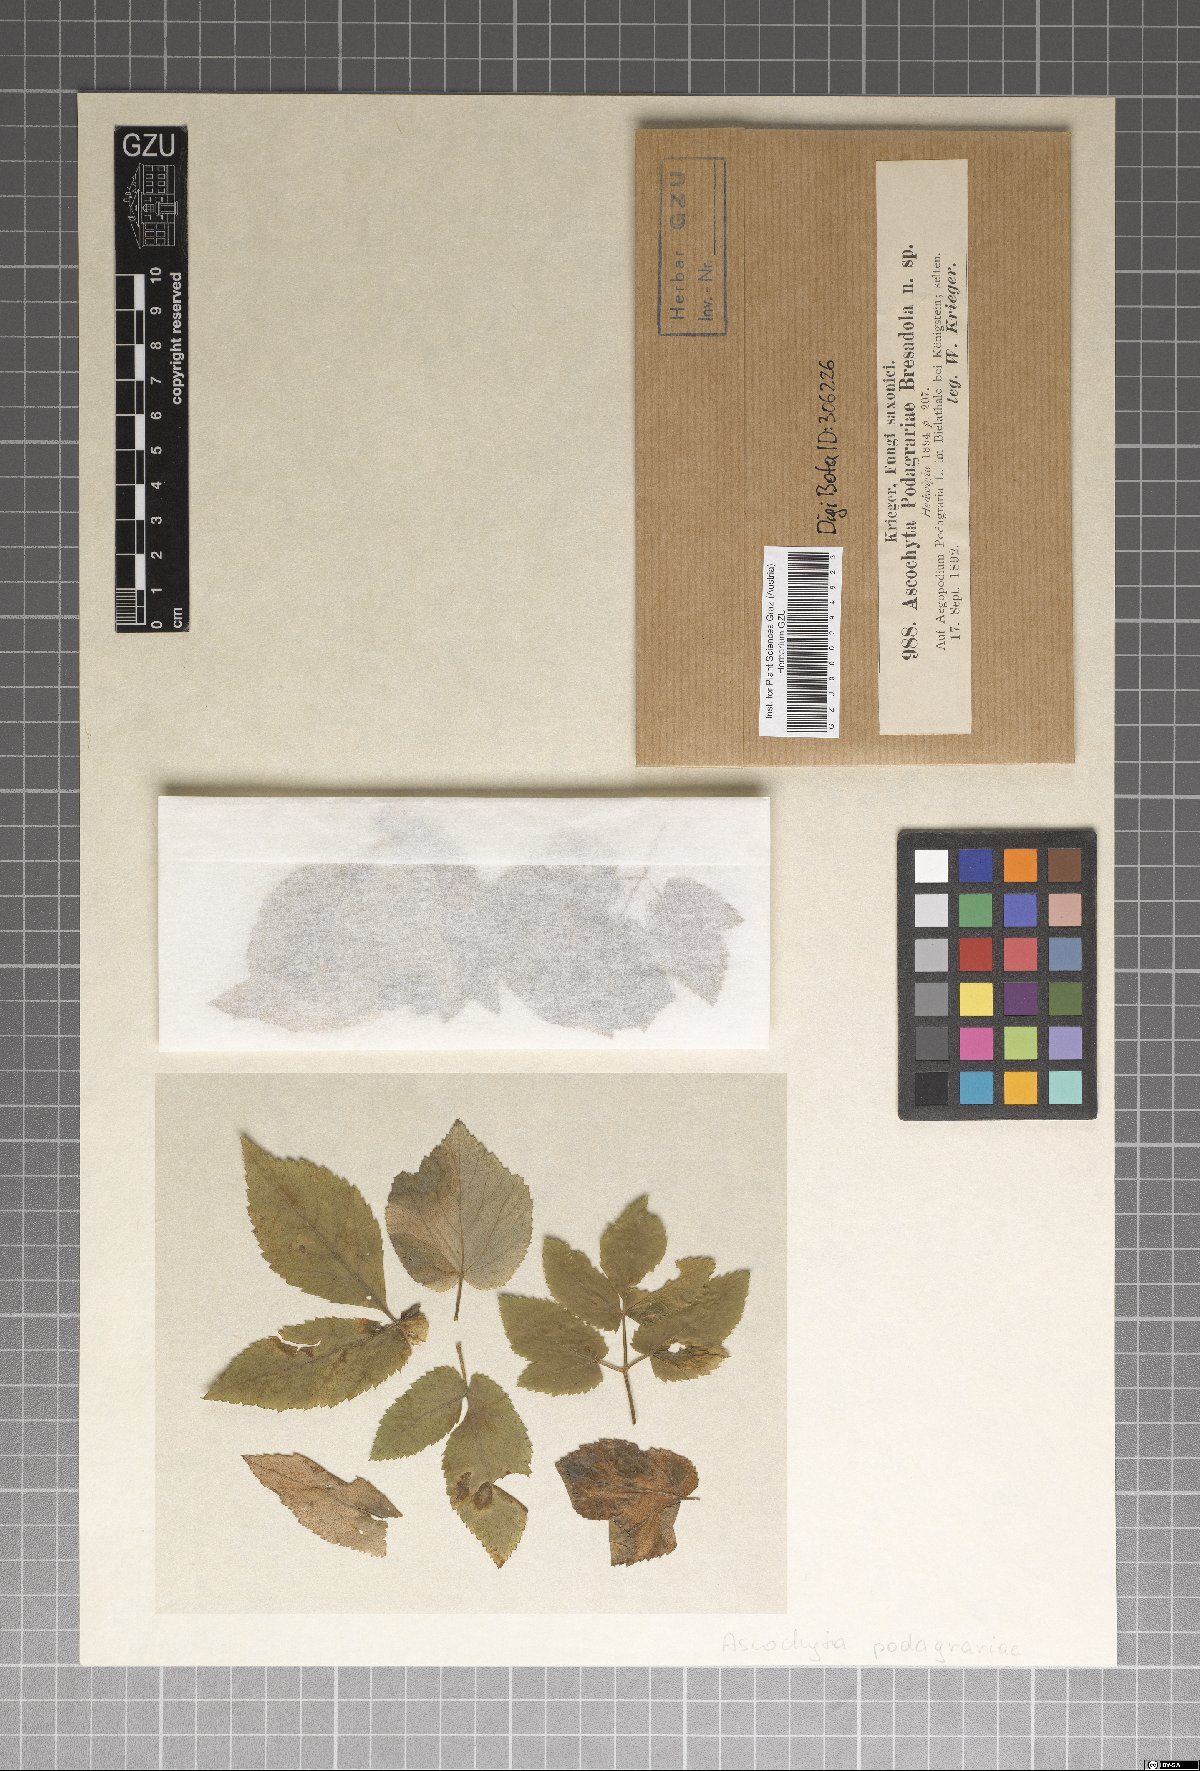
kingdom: Fungi
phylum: Ascomycota
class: Dothideomycetes
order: Pleosporales
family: Didymellaceae
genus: Ascochyta
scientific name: Ascochyta podagrariae
